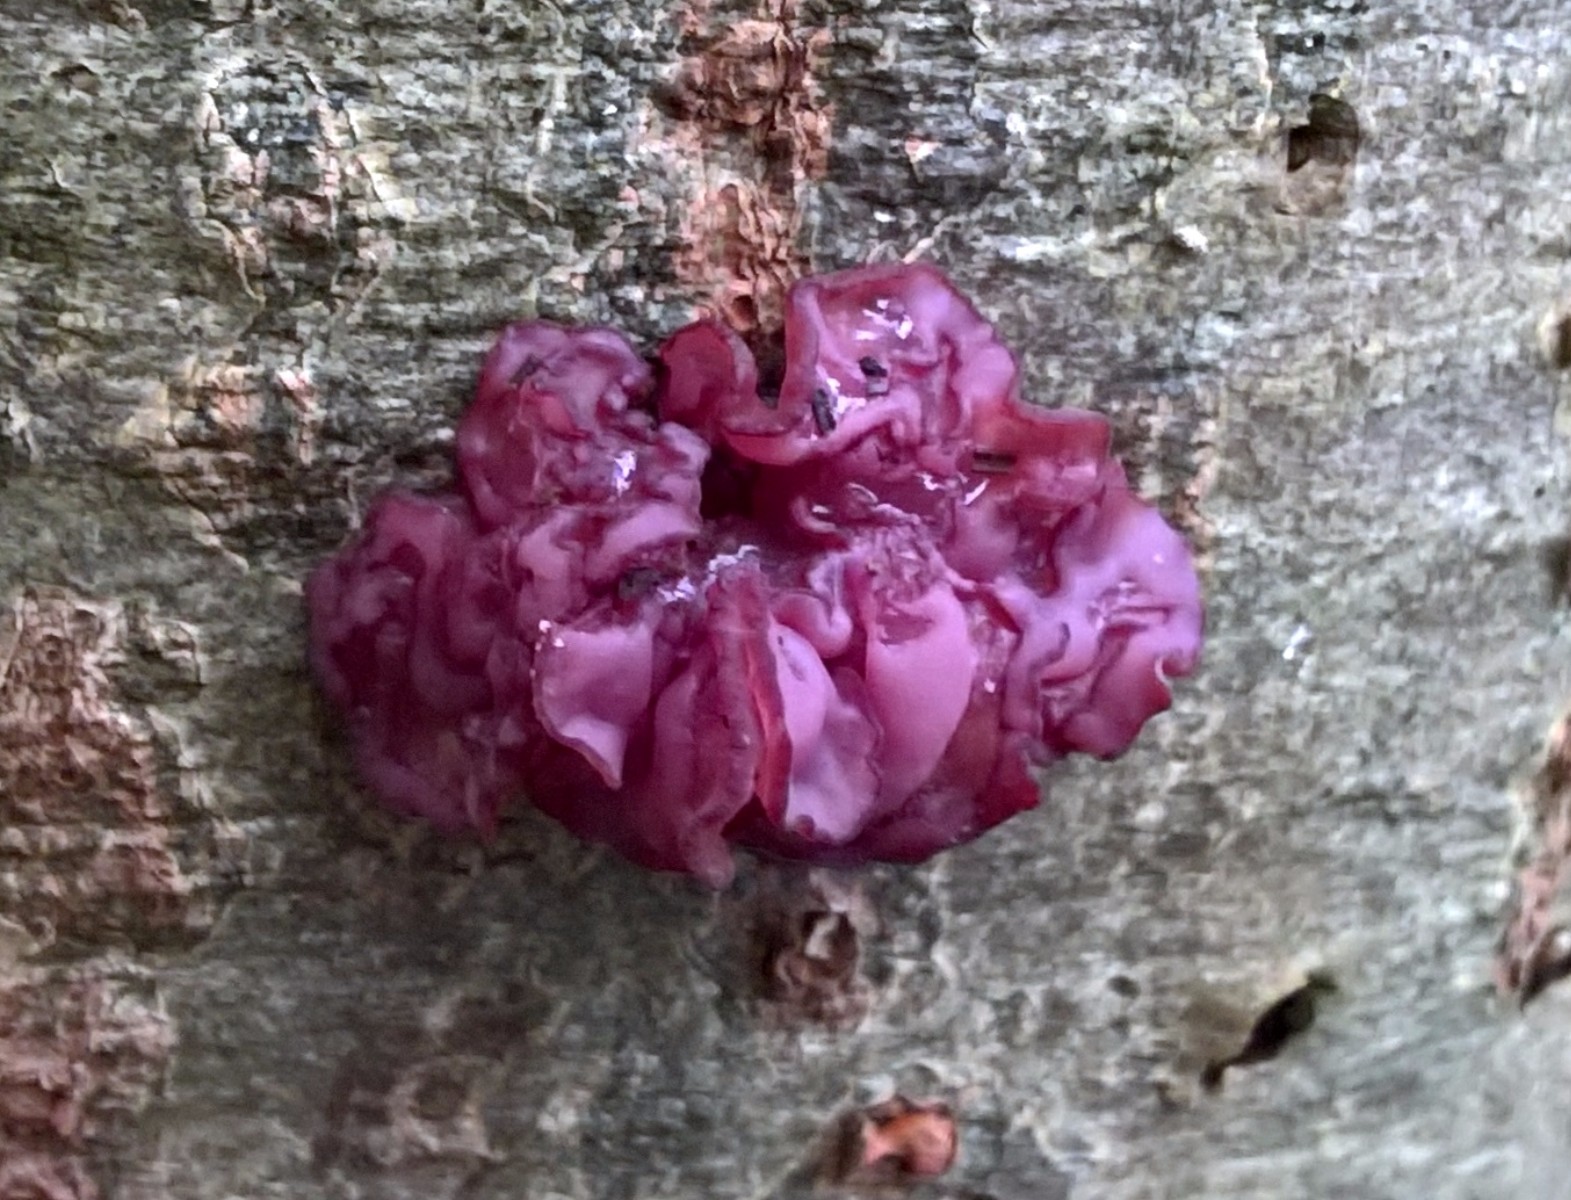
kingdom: Fungi
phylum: Ascomycota
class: Leotiomycetes
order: Helotiales
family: Gelatinodiscaceae
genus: Ascocoryne
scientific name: Ascocoryne sarcoides
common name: rødlilla sejskive
